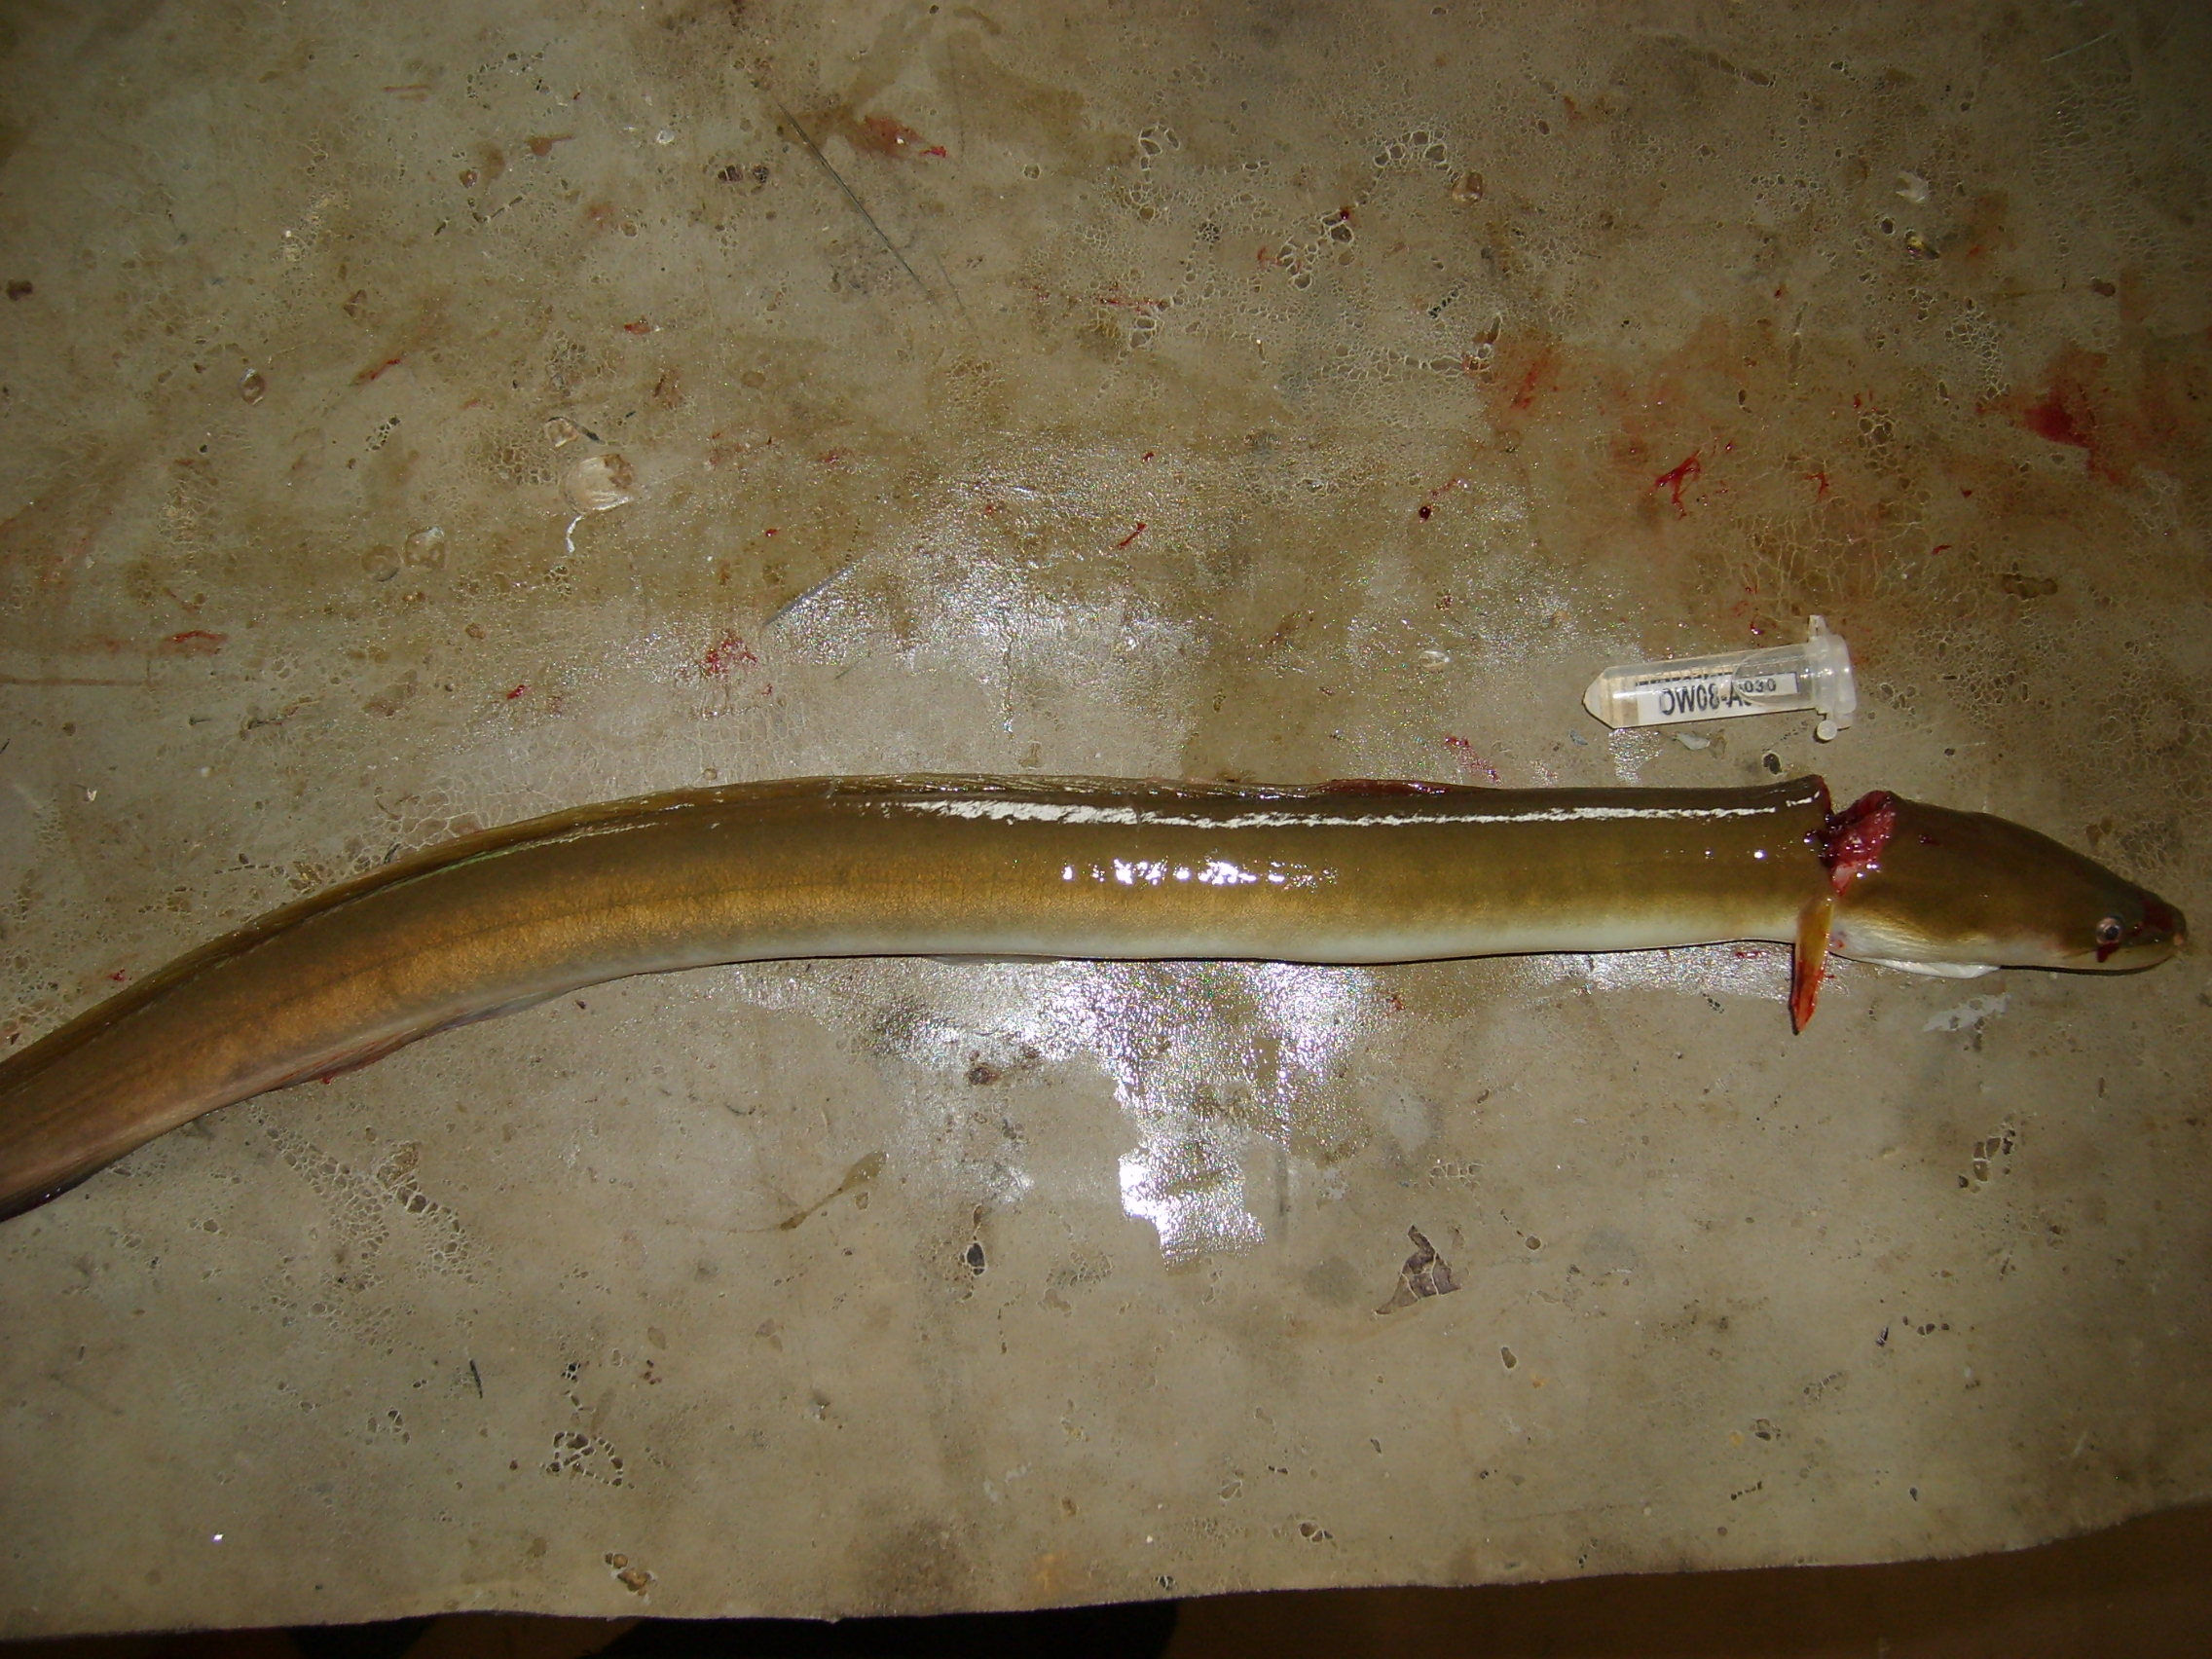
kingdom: Animalia
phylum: Chordata
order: Anguilliformes
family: Anguillidae
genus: Anguilla
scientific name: Anguilla mossambica
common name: African longfin eel
